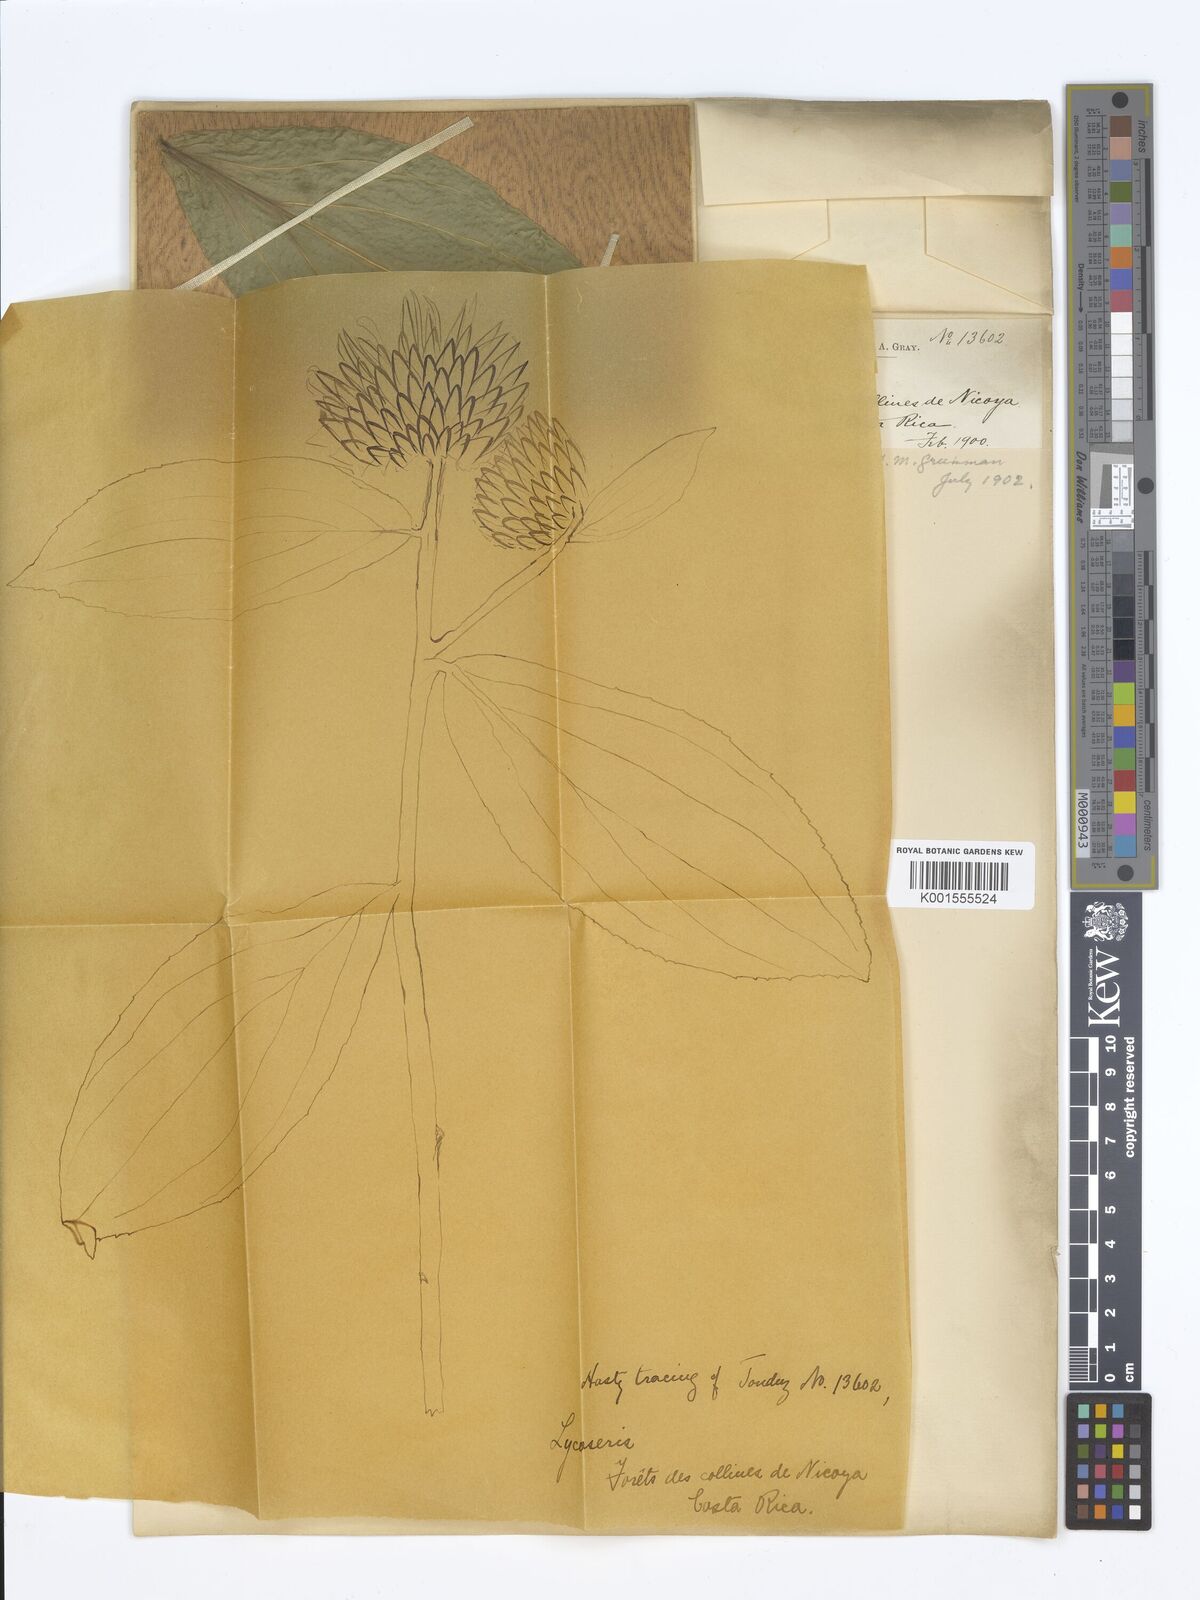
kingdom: Plantae
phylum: Tracheophyta
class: Magnoliopsida
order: Asterales
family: Asteraceae
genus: Lycoseris
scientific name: Lycoseris grandis
